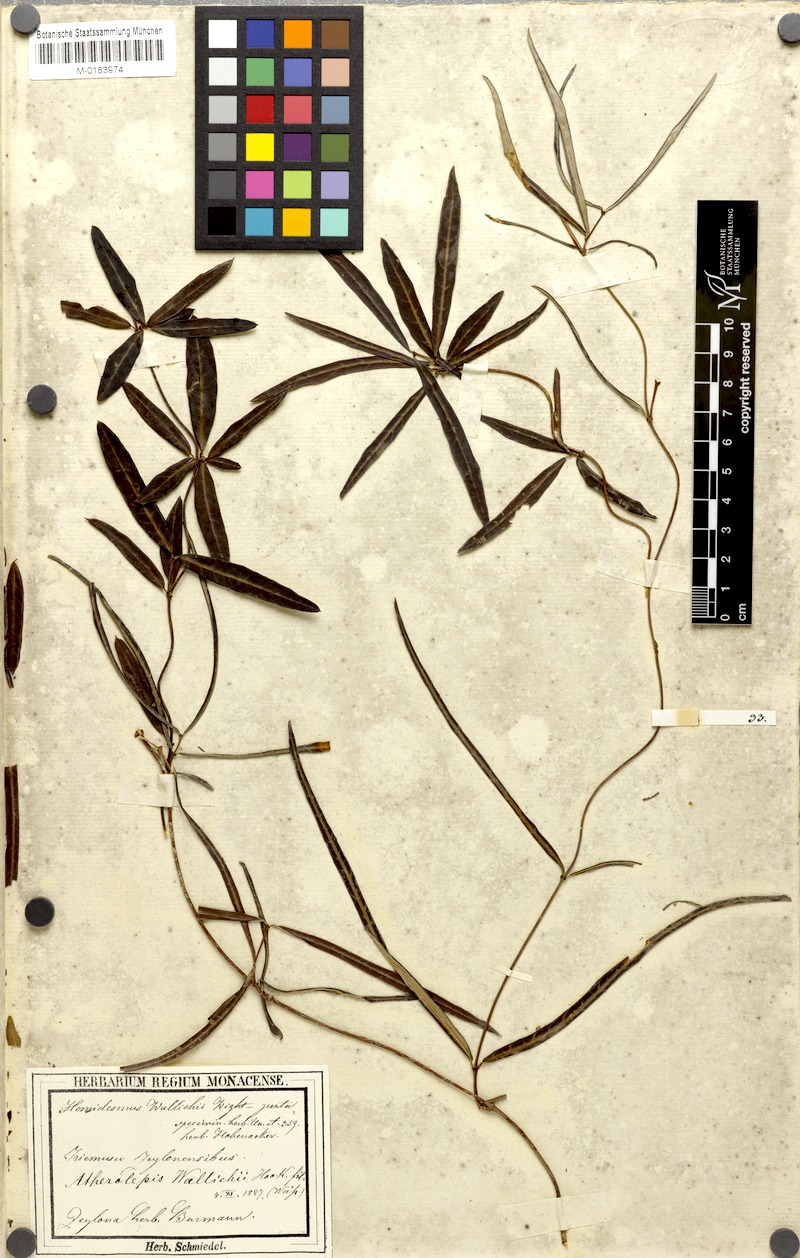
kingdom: Plantae
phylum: Tracheophyta
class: Magnoliopsida
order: Gentianales
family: Apocynaceae
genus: Finlaysonia
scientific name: Finlaysonia wallichii
